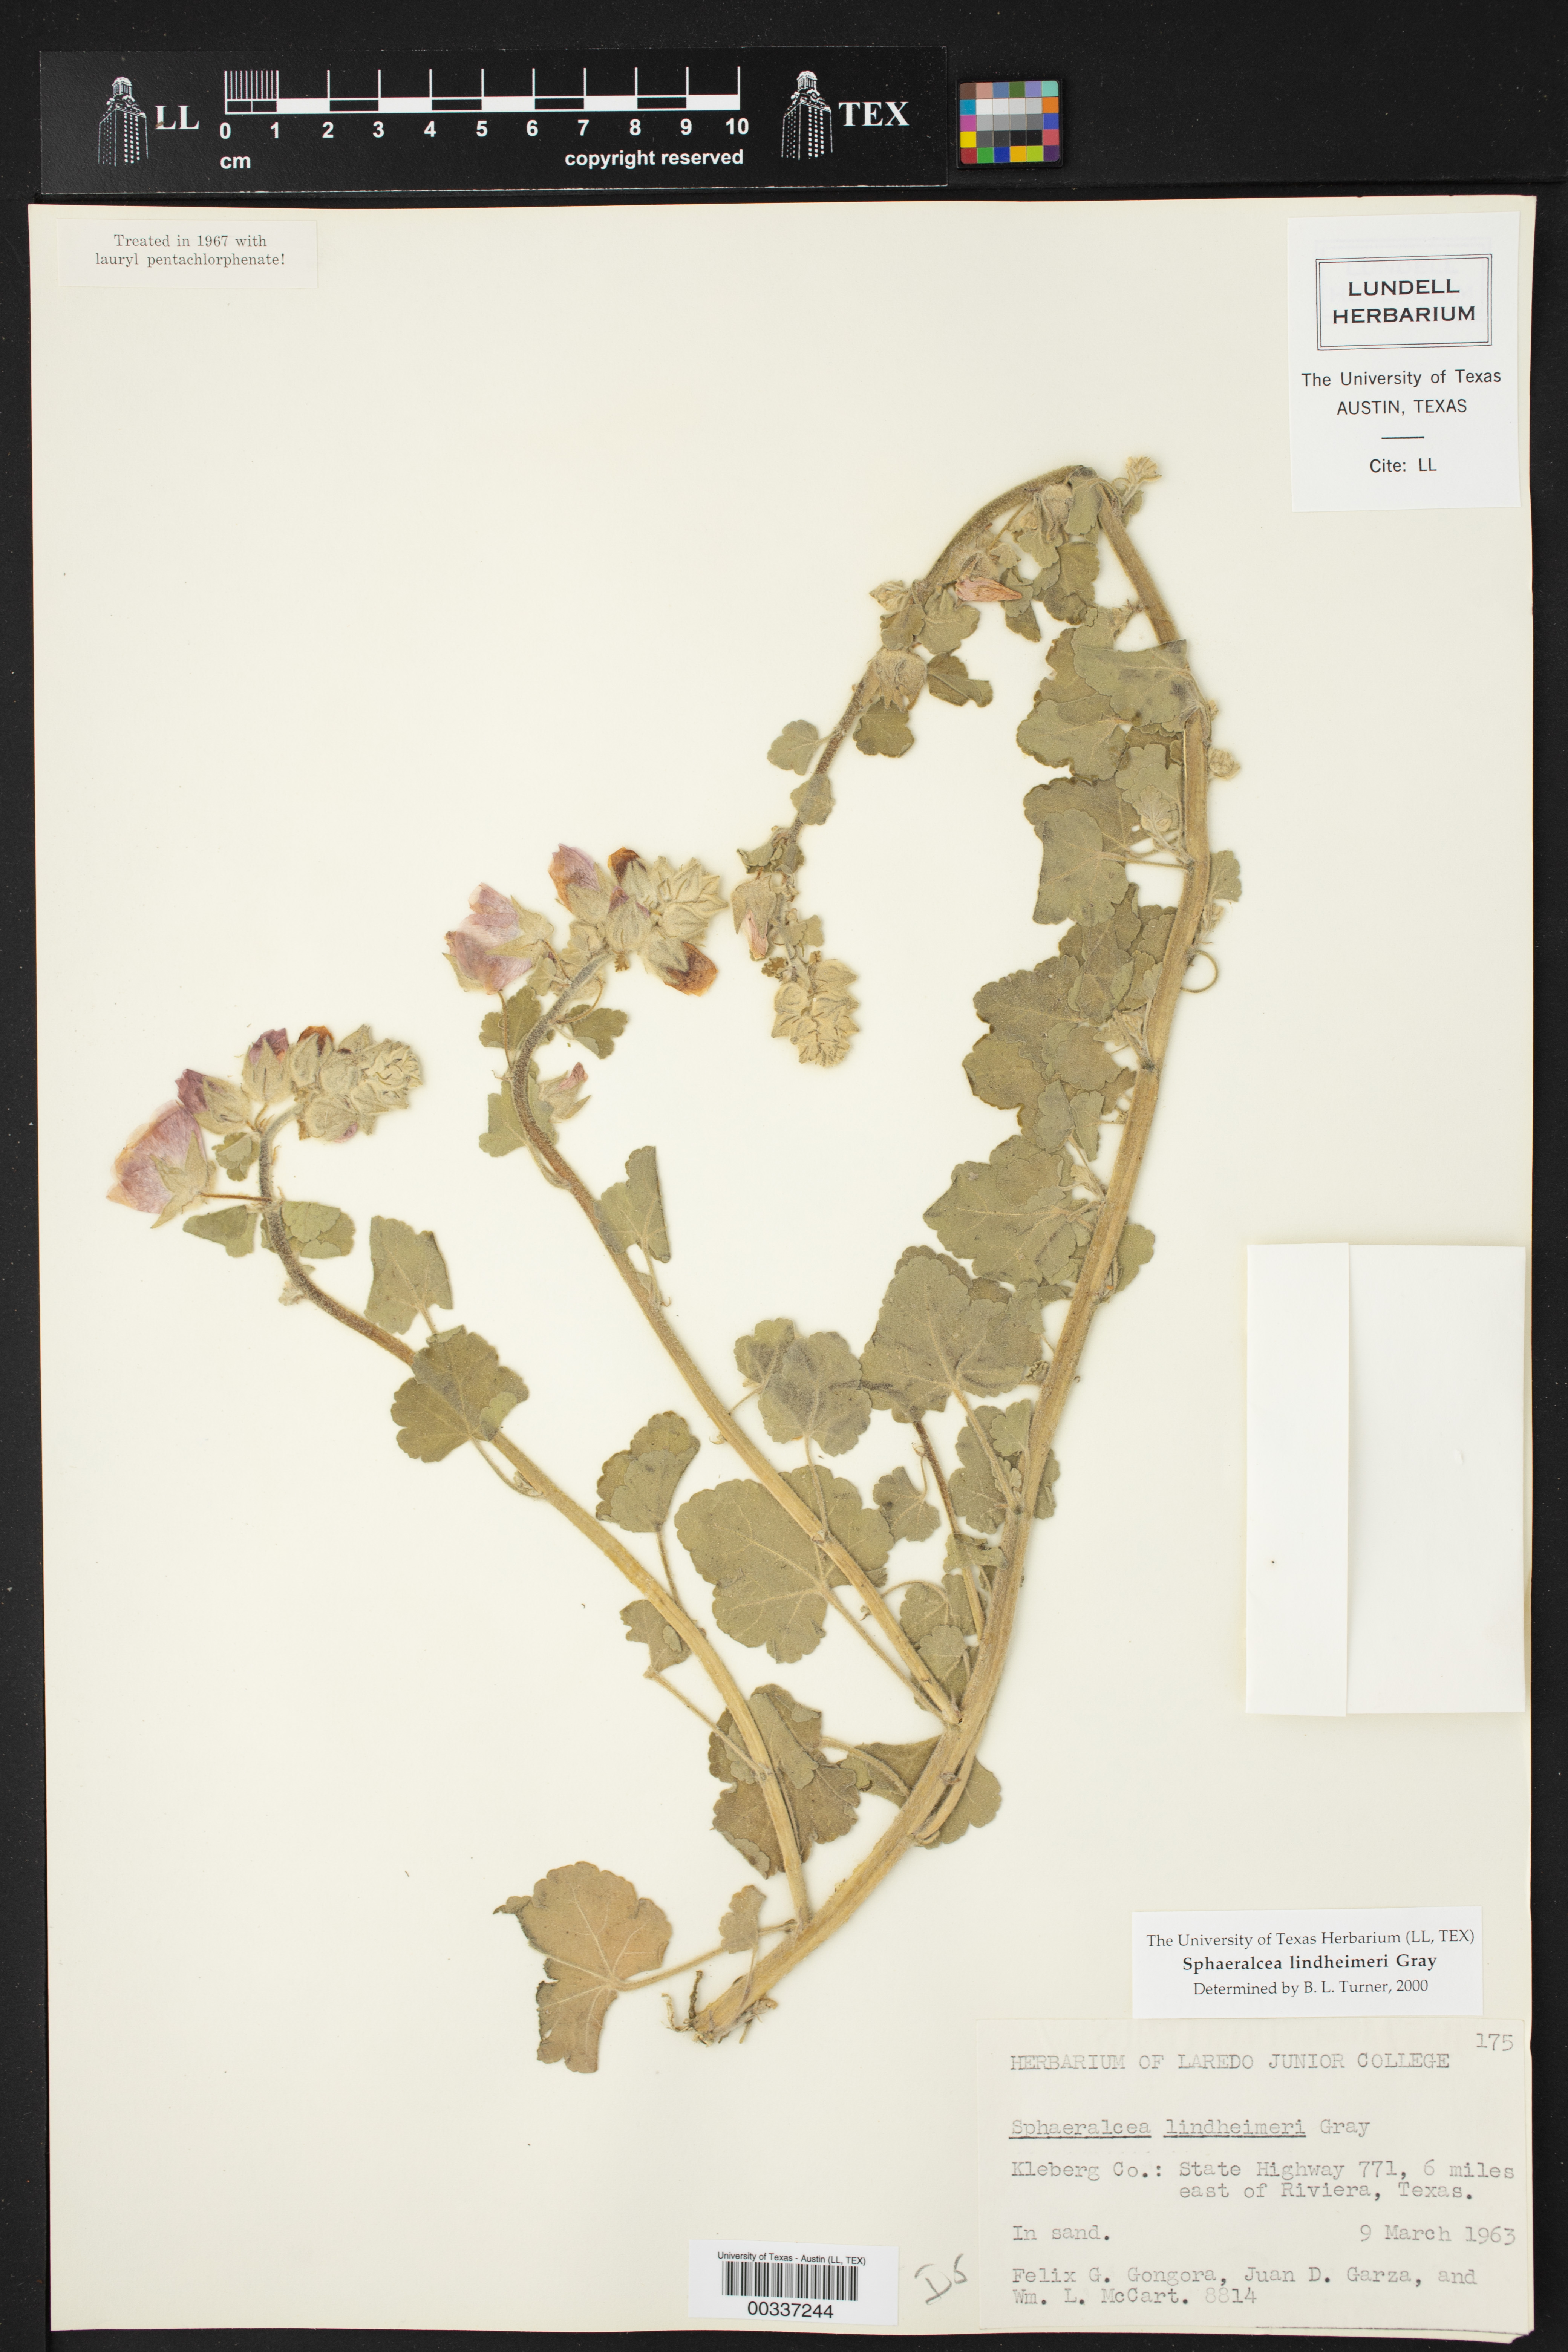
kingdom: Plantae
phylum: Tracheophyta
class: Magnoliopsida
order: Malvales
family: Malvaceae
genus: Sphaeralcea
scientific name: Sphaeralcea lindheimeri
